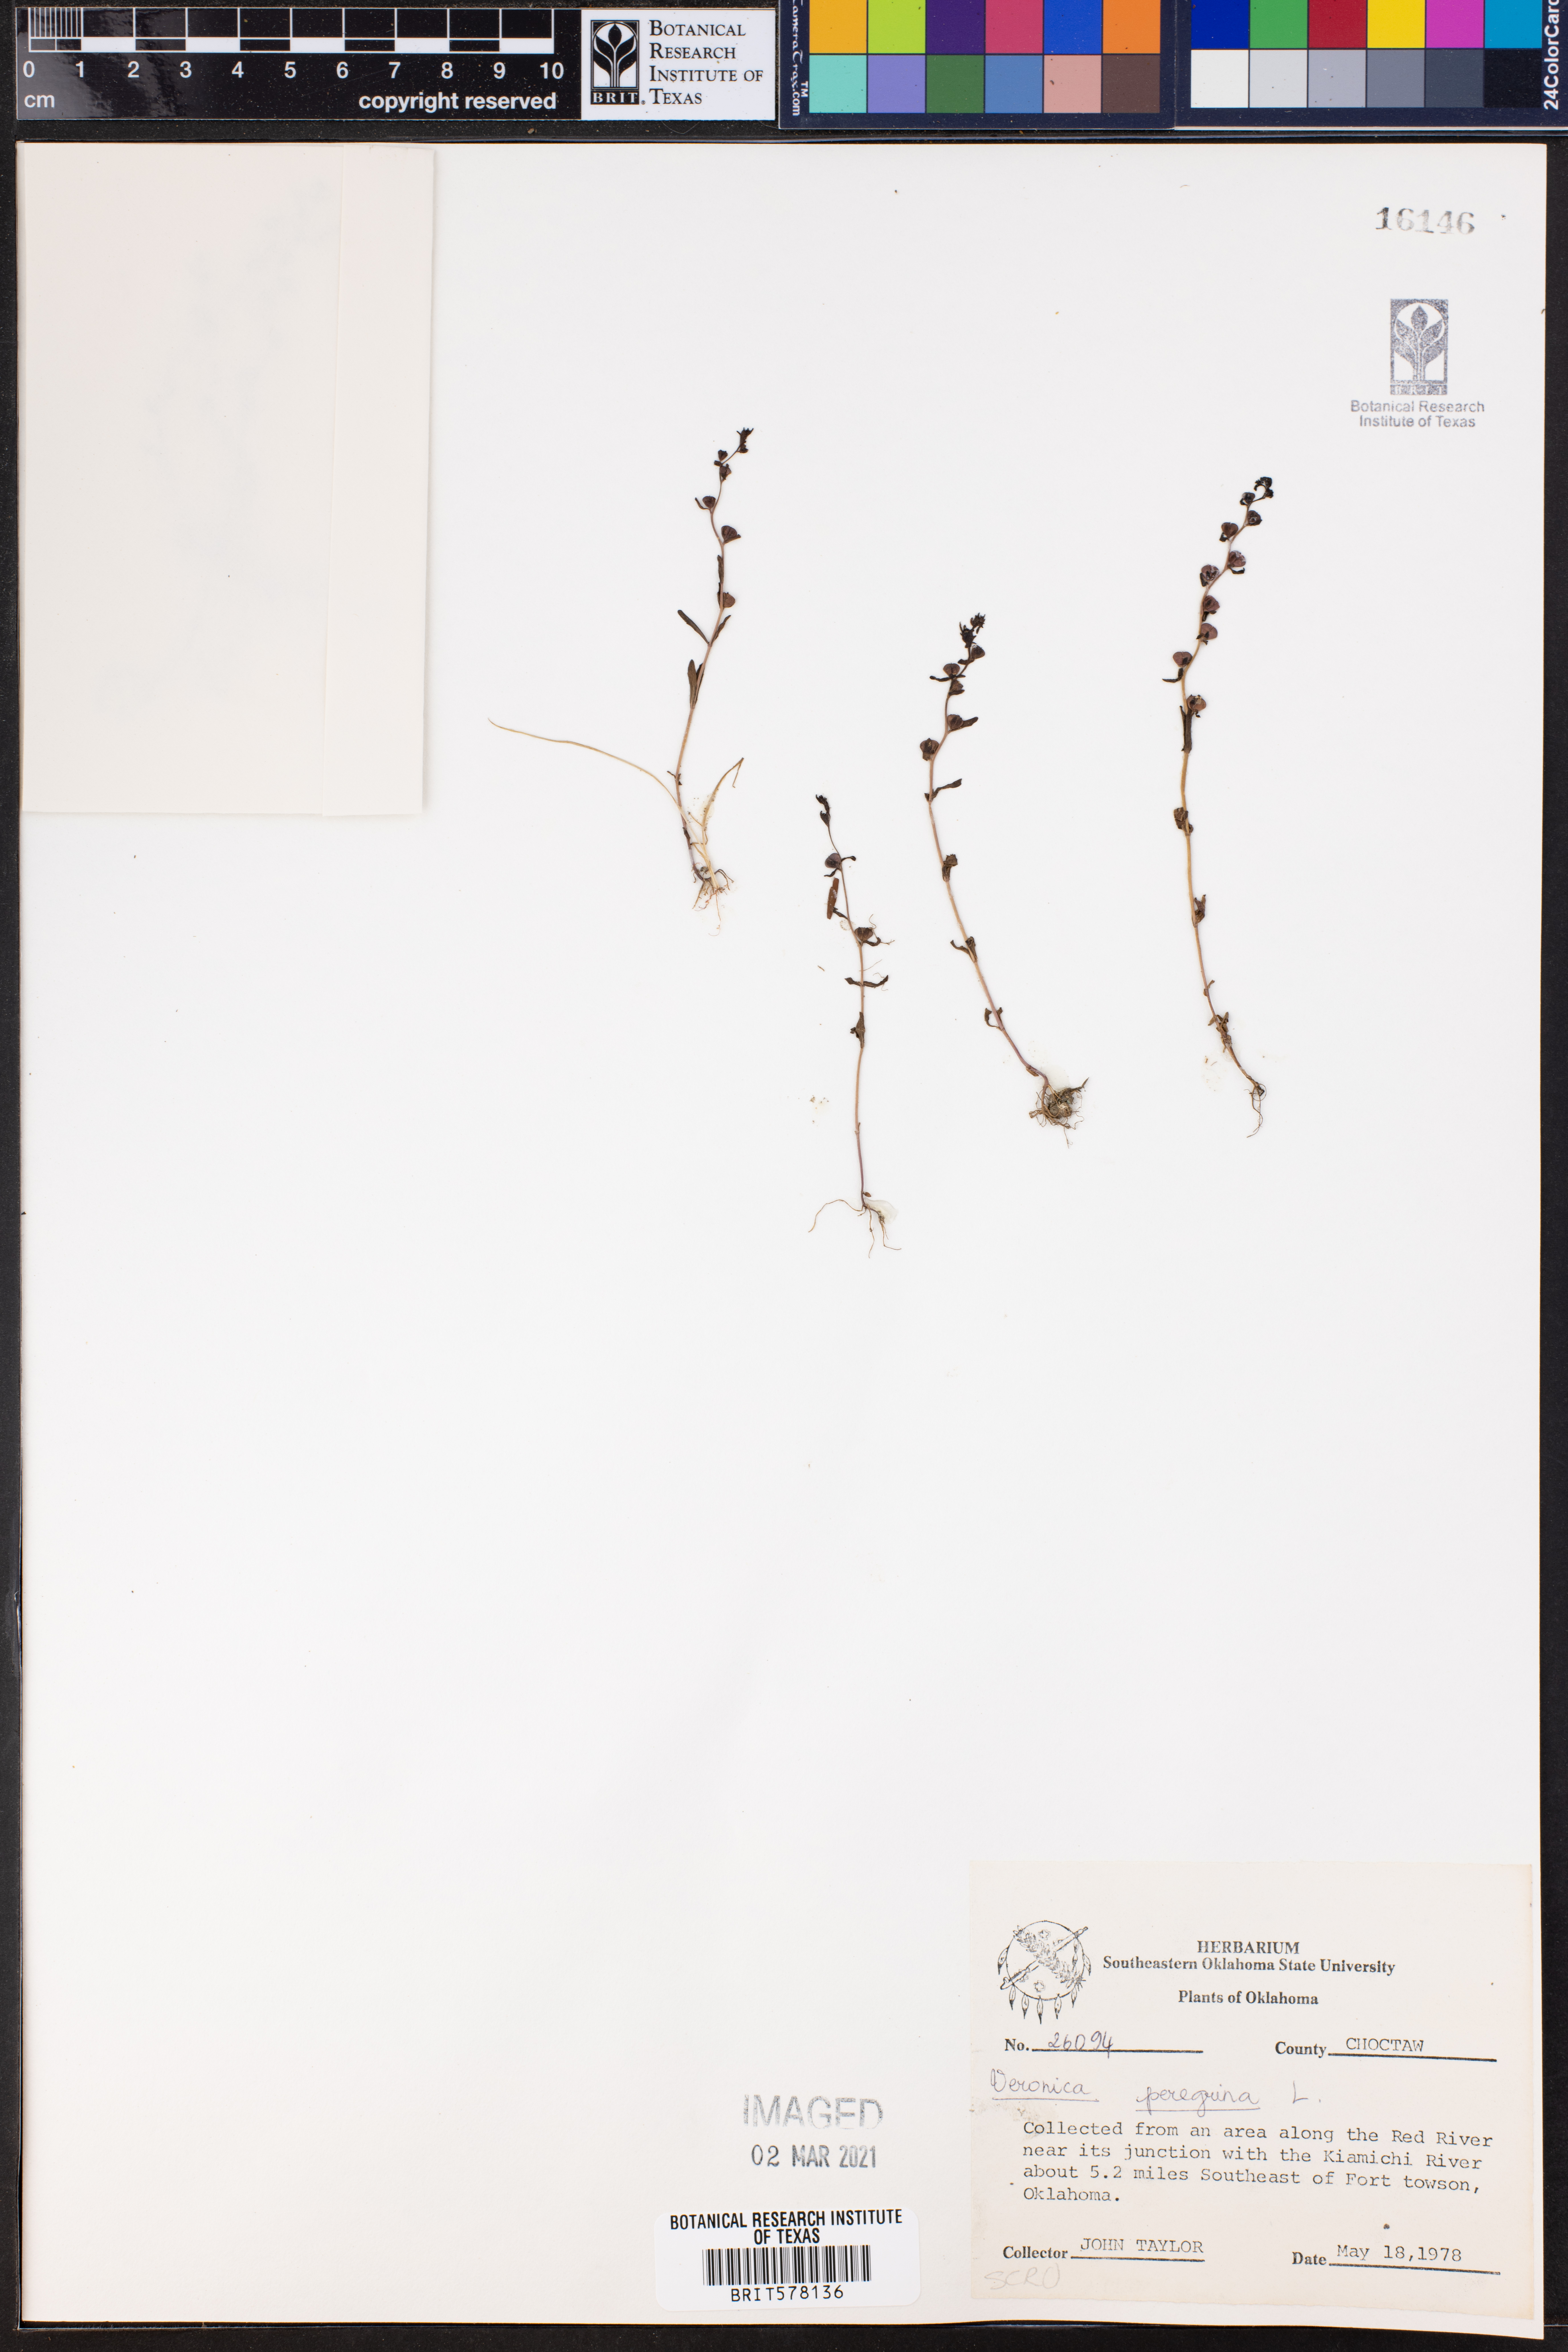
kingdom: Plantae
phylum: Tracheophyta
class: Magnoliopsida
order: Lamiales
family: Plantaginaceae
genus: Veronica
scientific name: Veronica peregrina
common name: Neckweed
